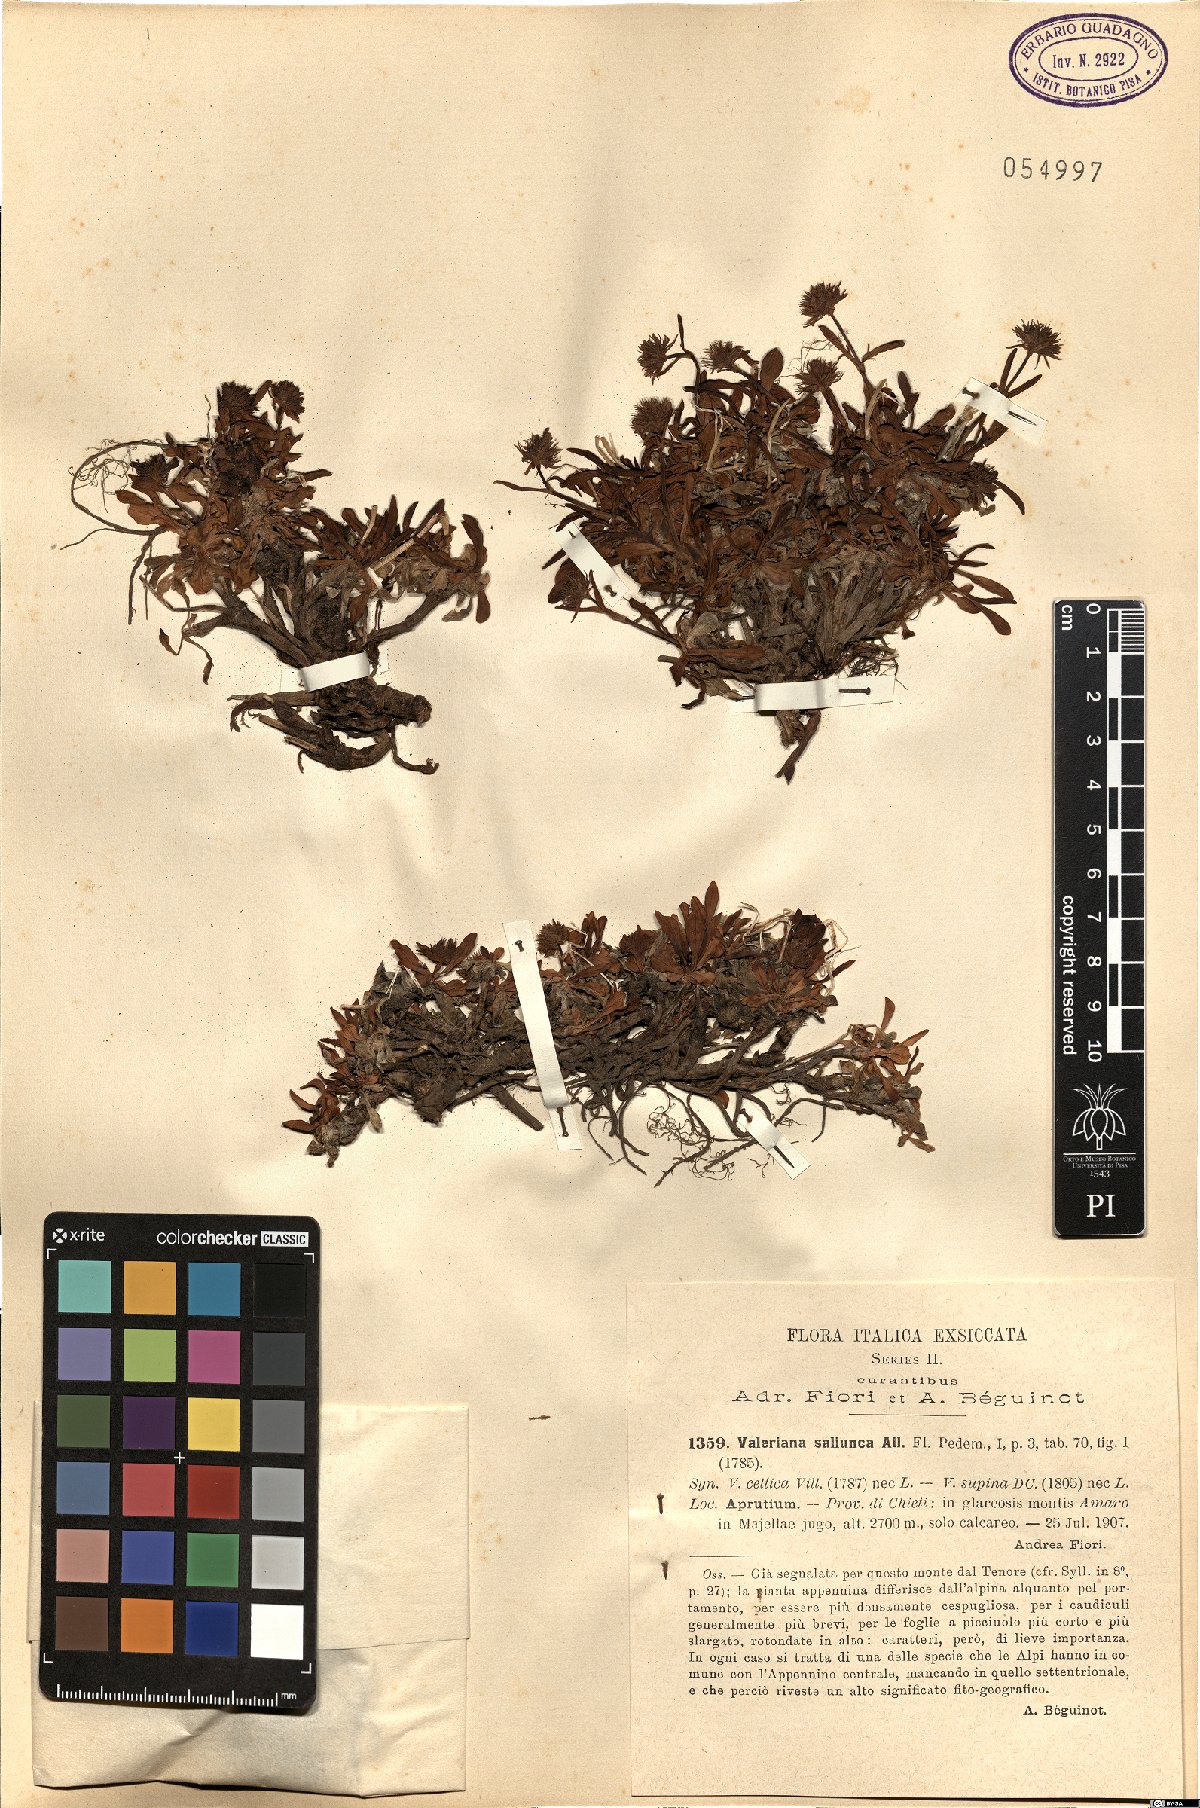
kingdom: Plantae
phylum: Tracheophyta
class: Magnoliopsida
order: Dipsacales
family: Caprifoliaceae
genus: Valeriana
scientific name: Valeriana saliunca
